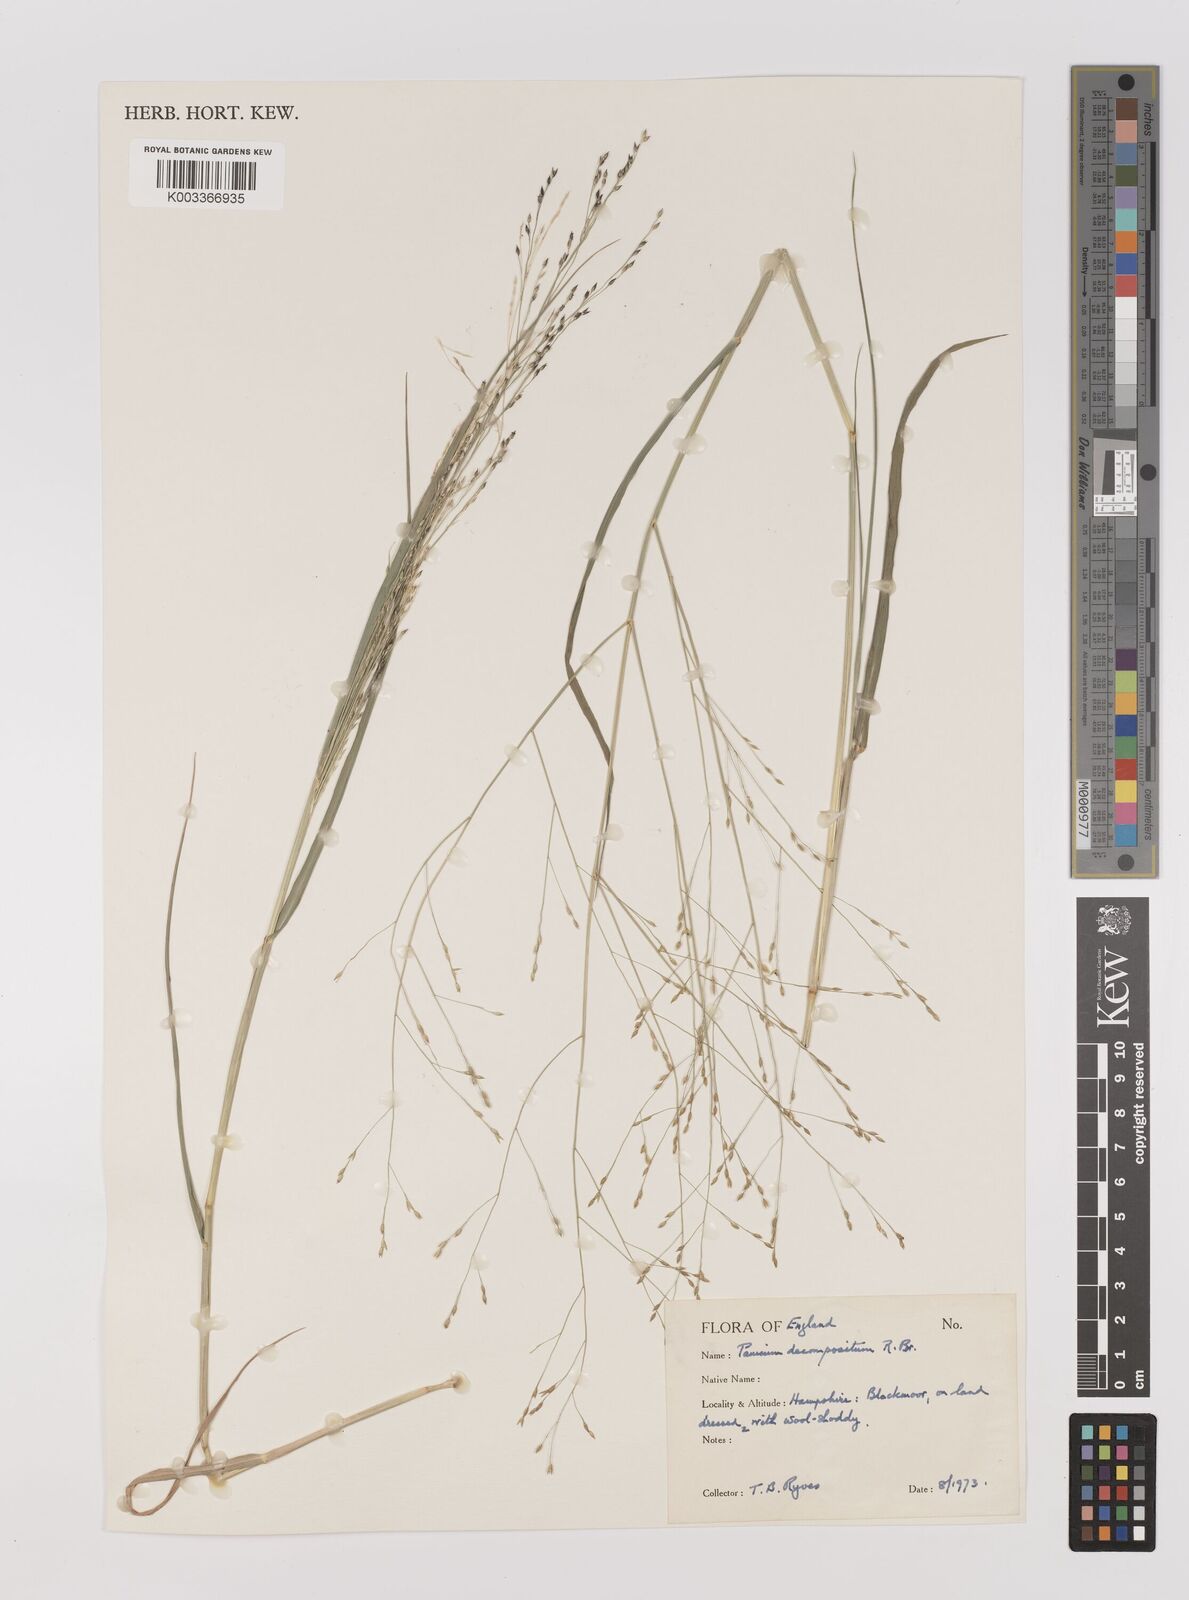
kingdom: Plantae
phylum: Tracheophyta
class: Liliopsida
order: Poales
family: Poaceae
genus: Panicum
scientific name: Panicum decompositum
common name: Australian millet
